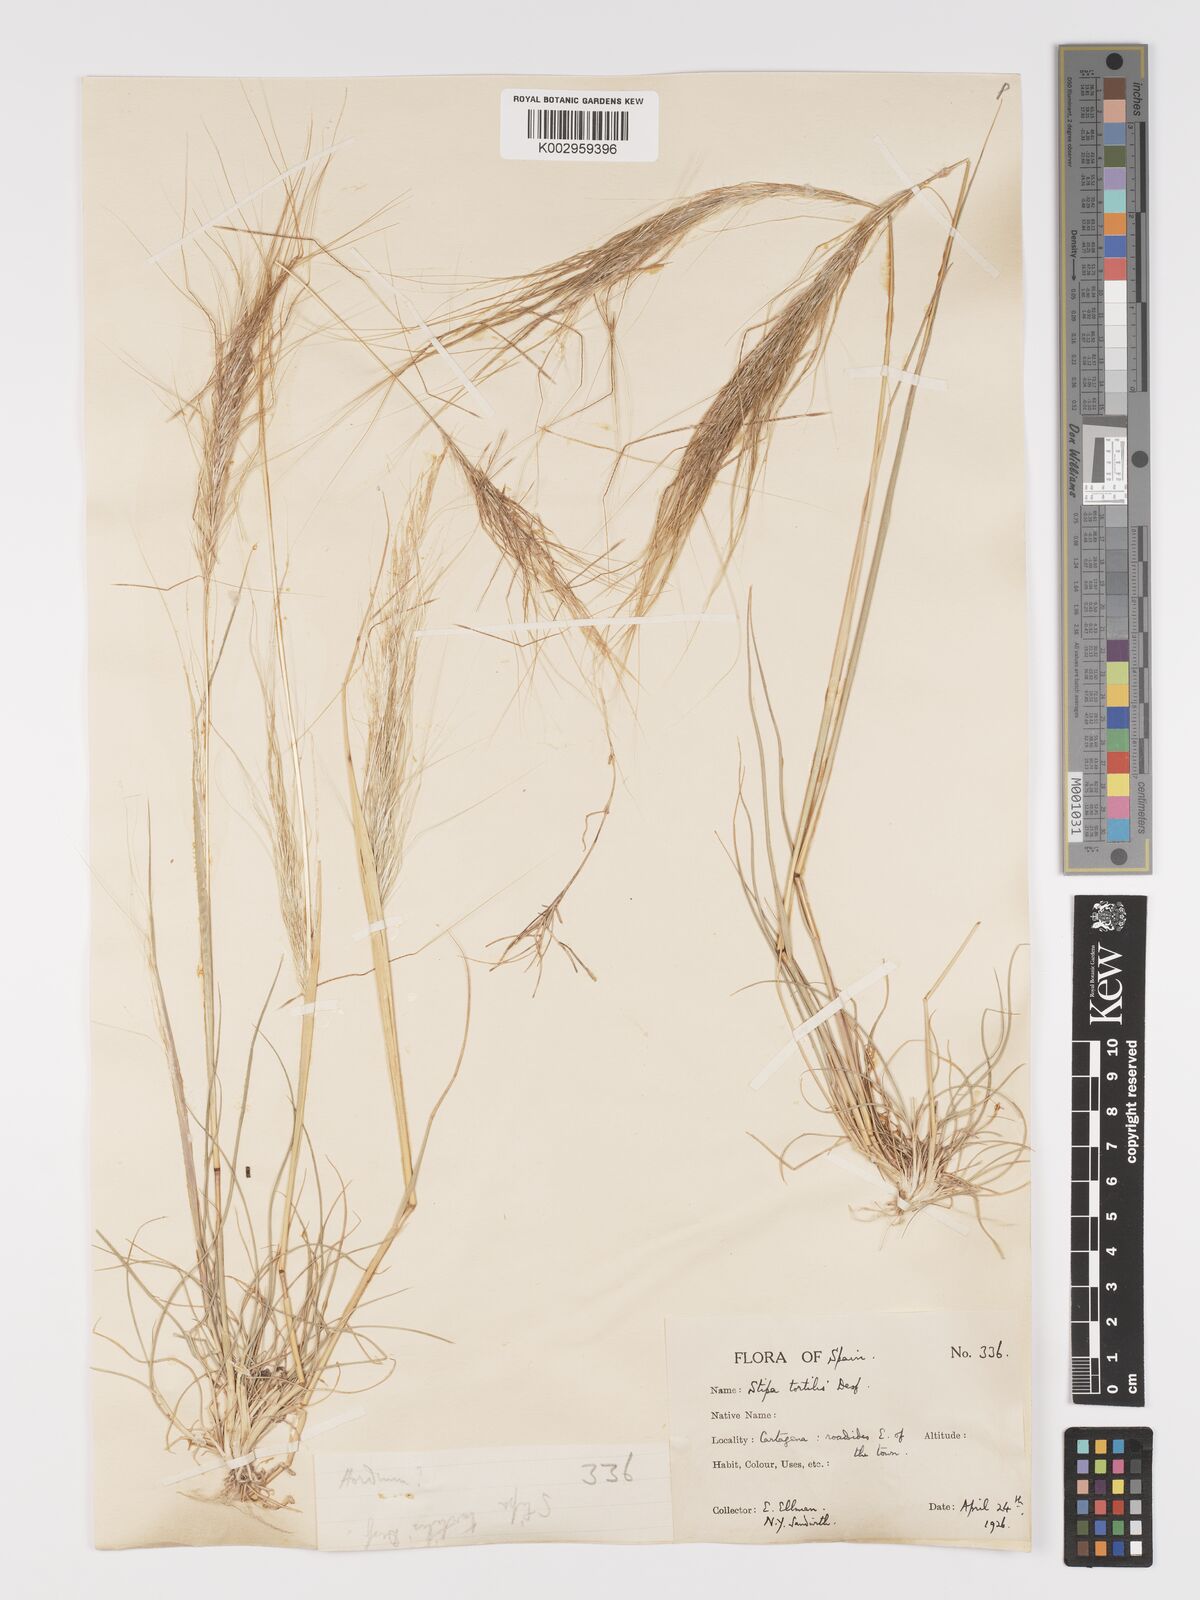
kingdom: Plantae
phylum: Tracheophyta
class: Liliopsida
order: Poales
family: Poaceae
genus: Stipellula
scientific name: Stipellula capensis
